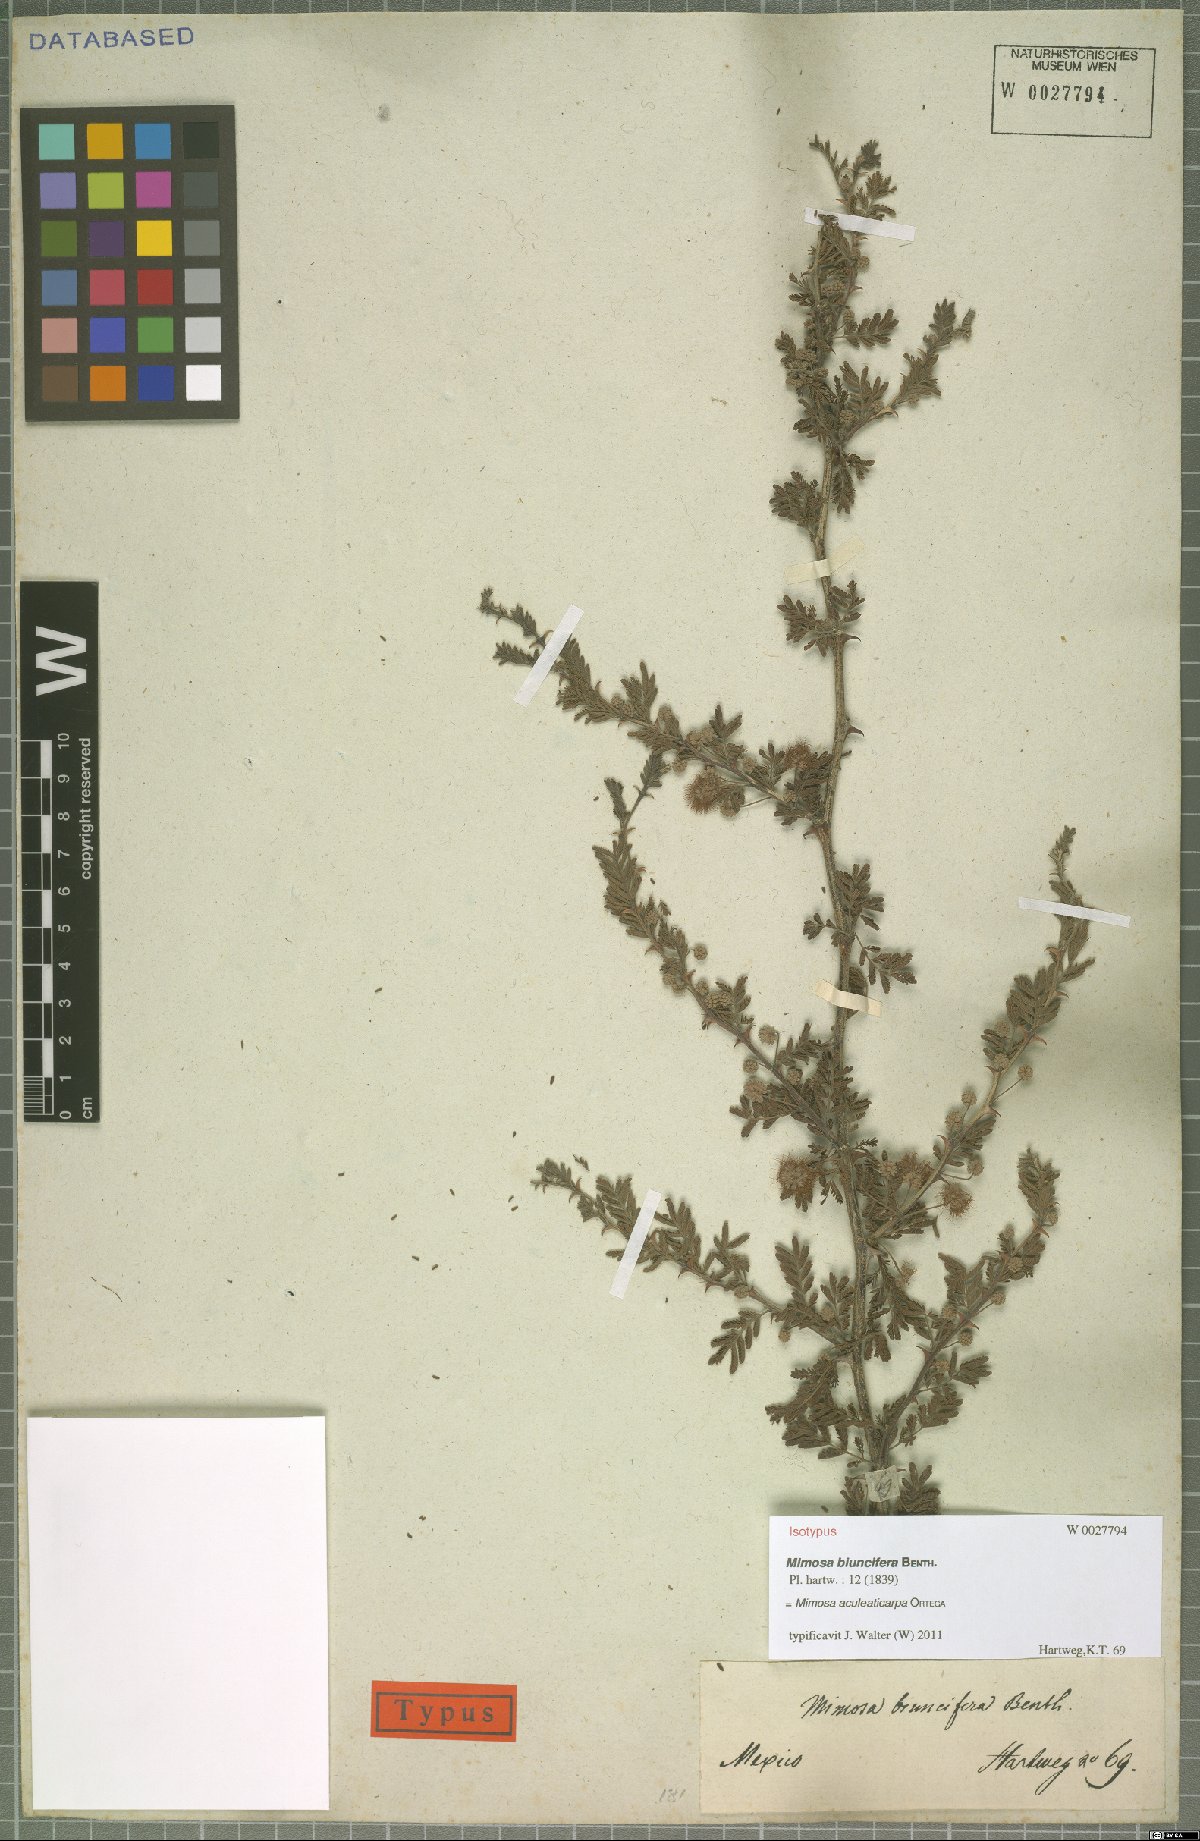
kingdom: Plantae
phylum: Tracheophyta
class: Magnoliopsida
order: Fabales
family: Fabaceae
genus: Mimosa
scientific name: Mimosa aculeaticarpa
